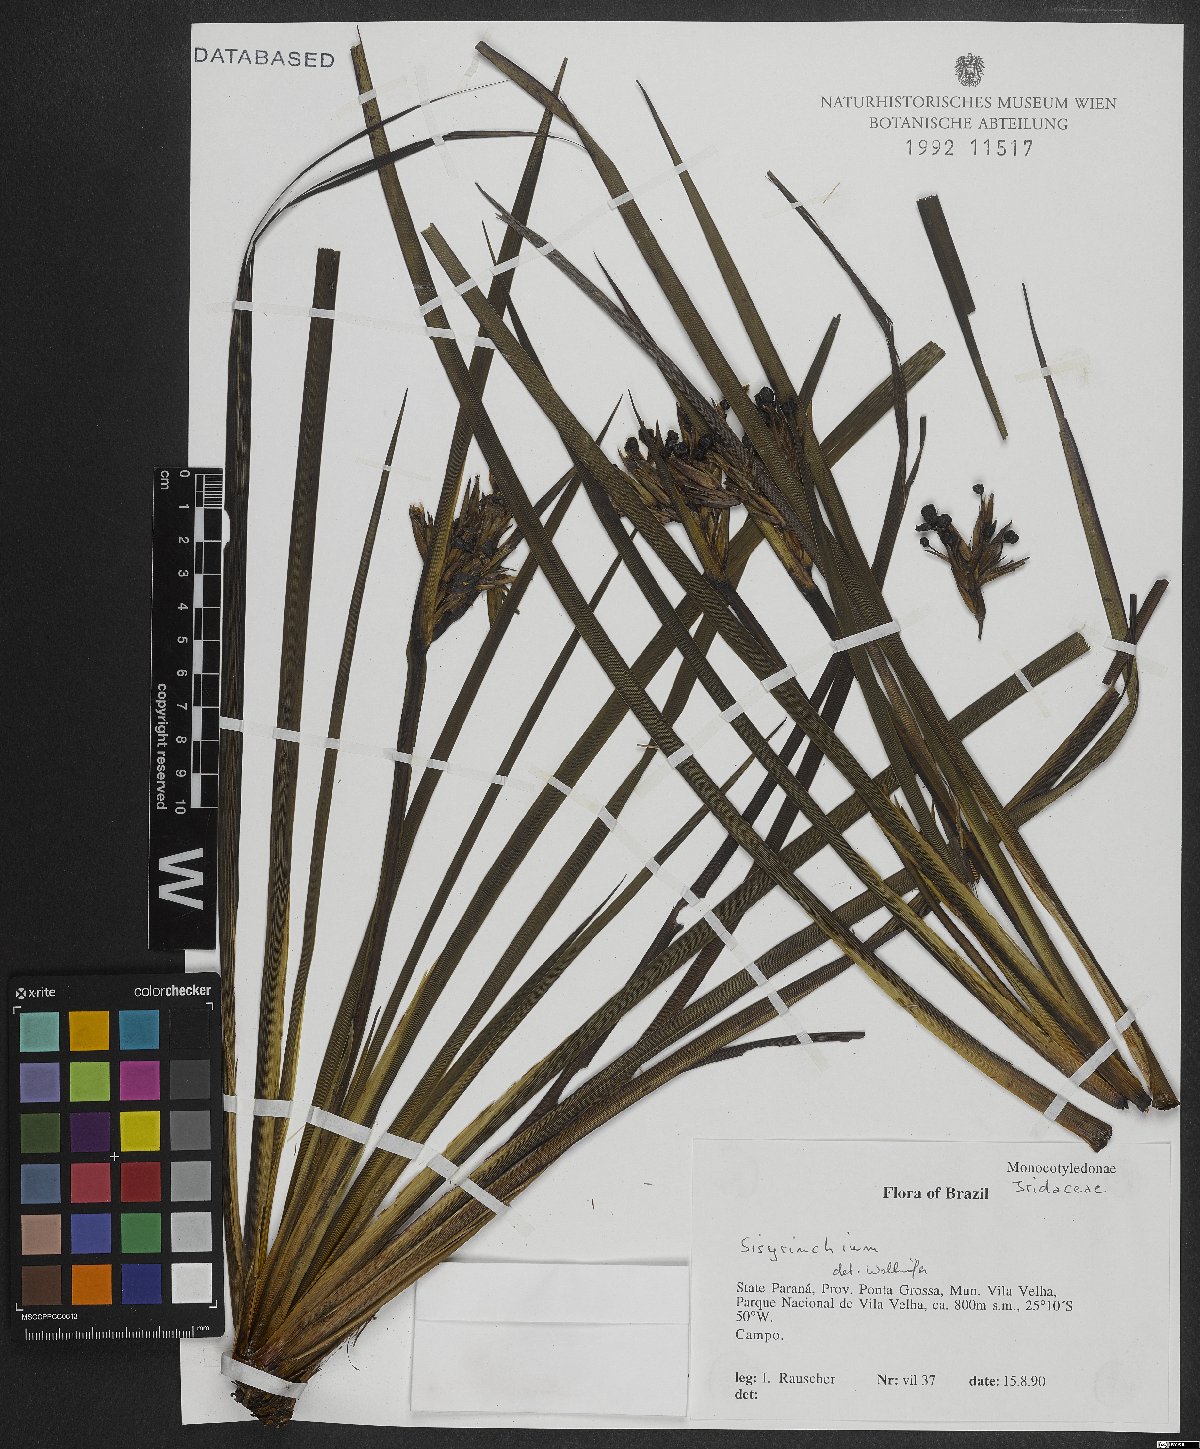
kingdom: Plantae
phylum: Tracheophyta
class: Liliopsida
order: Asparagales
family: Iridaceae
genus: Sisyrinchium
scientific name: Sisyrinchium
